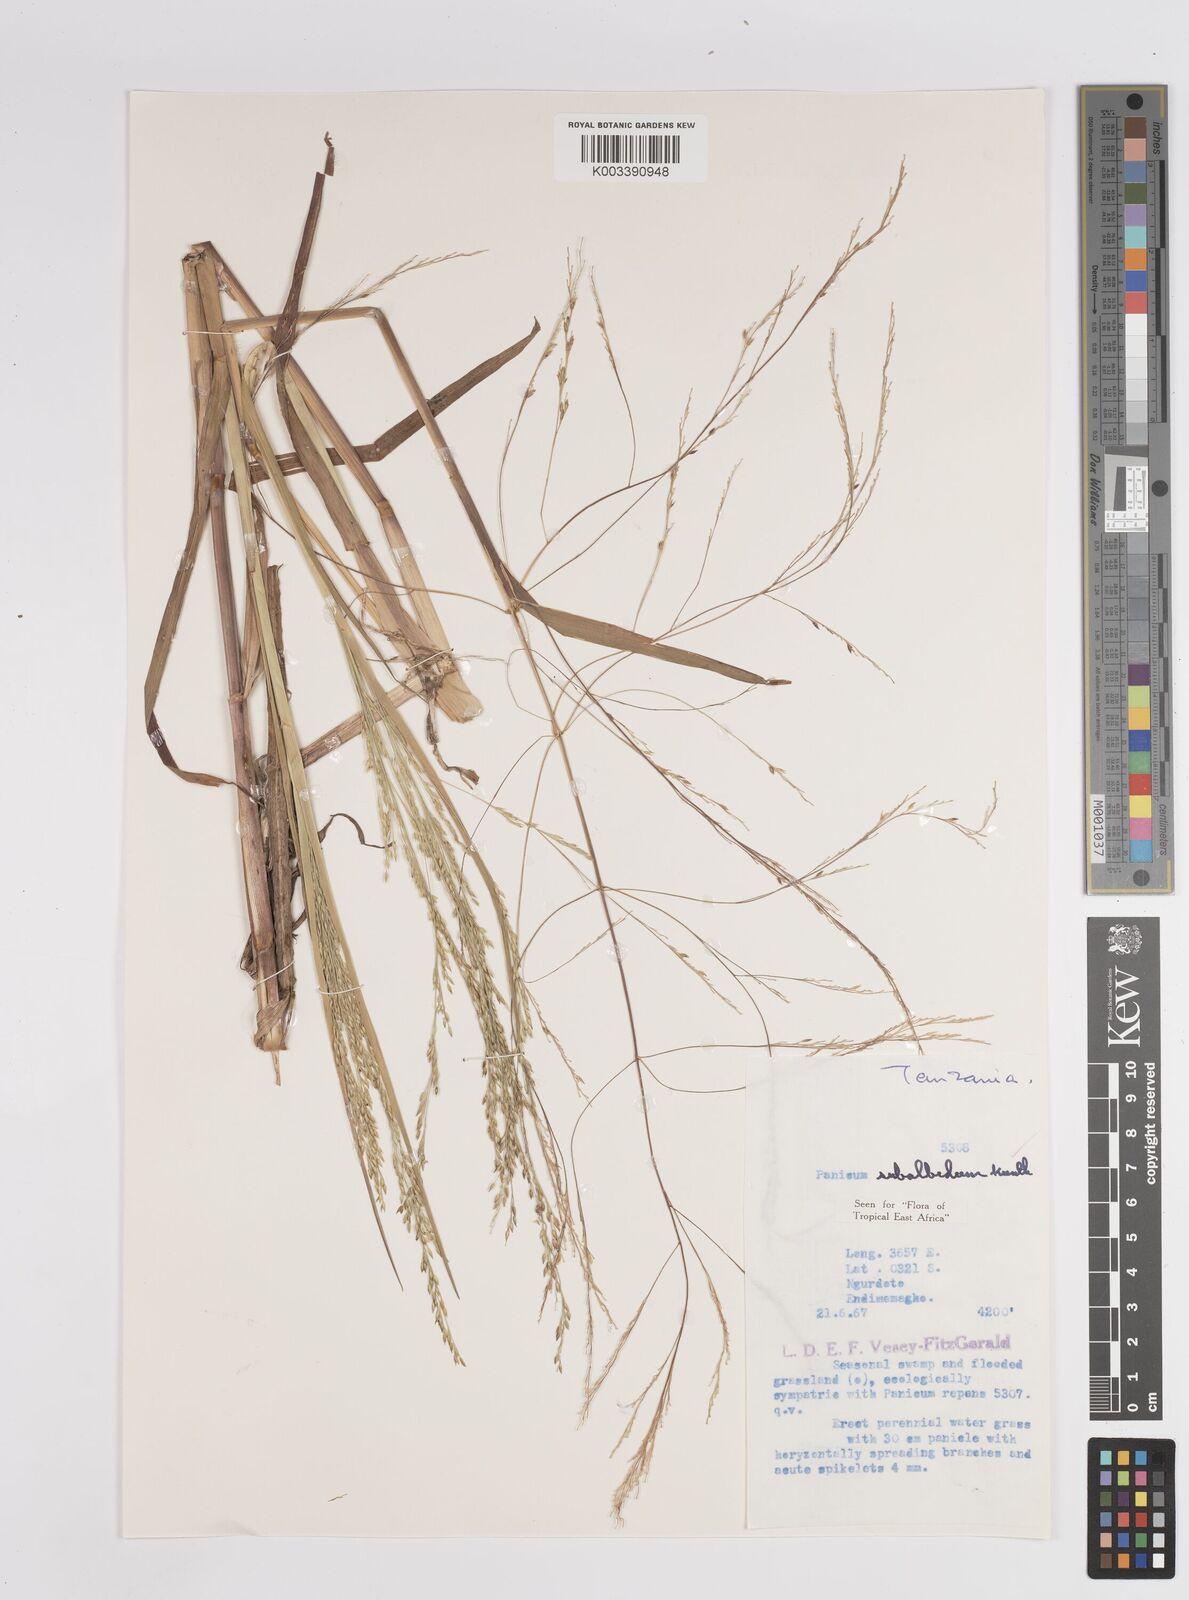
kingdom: Plantae
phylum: Tracheophyta
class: Liliopsida
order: Poales
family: Poaceae
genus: Panicum
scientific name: Panicum subalbidum
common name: Elbow buffalo grass
